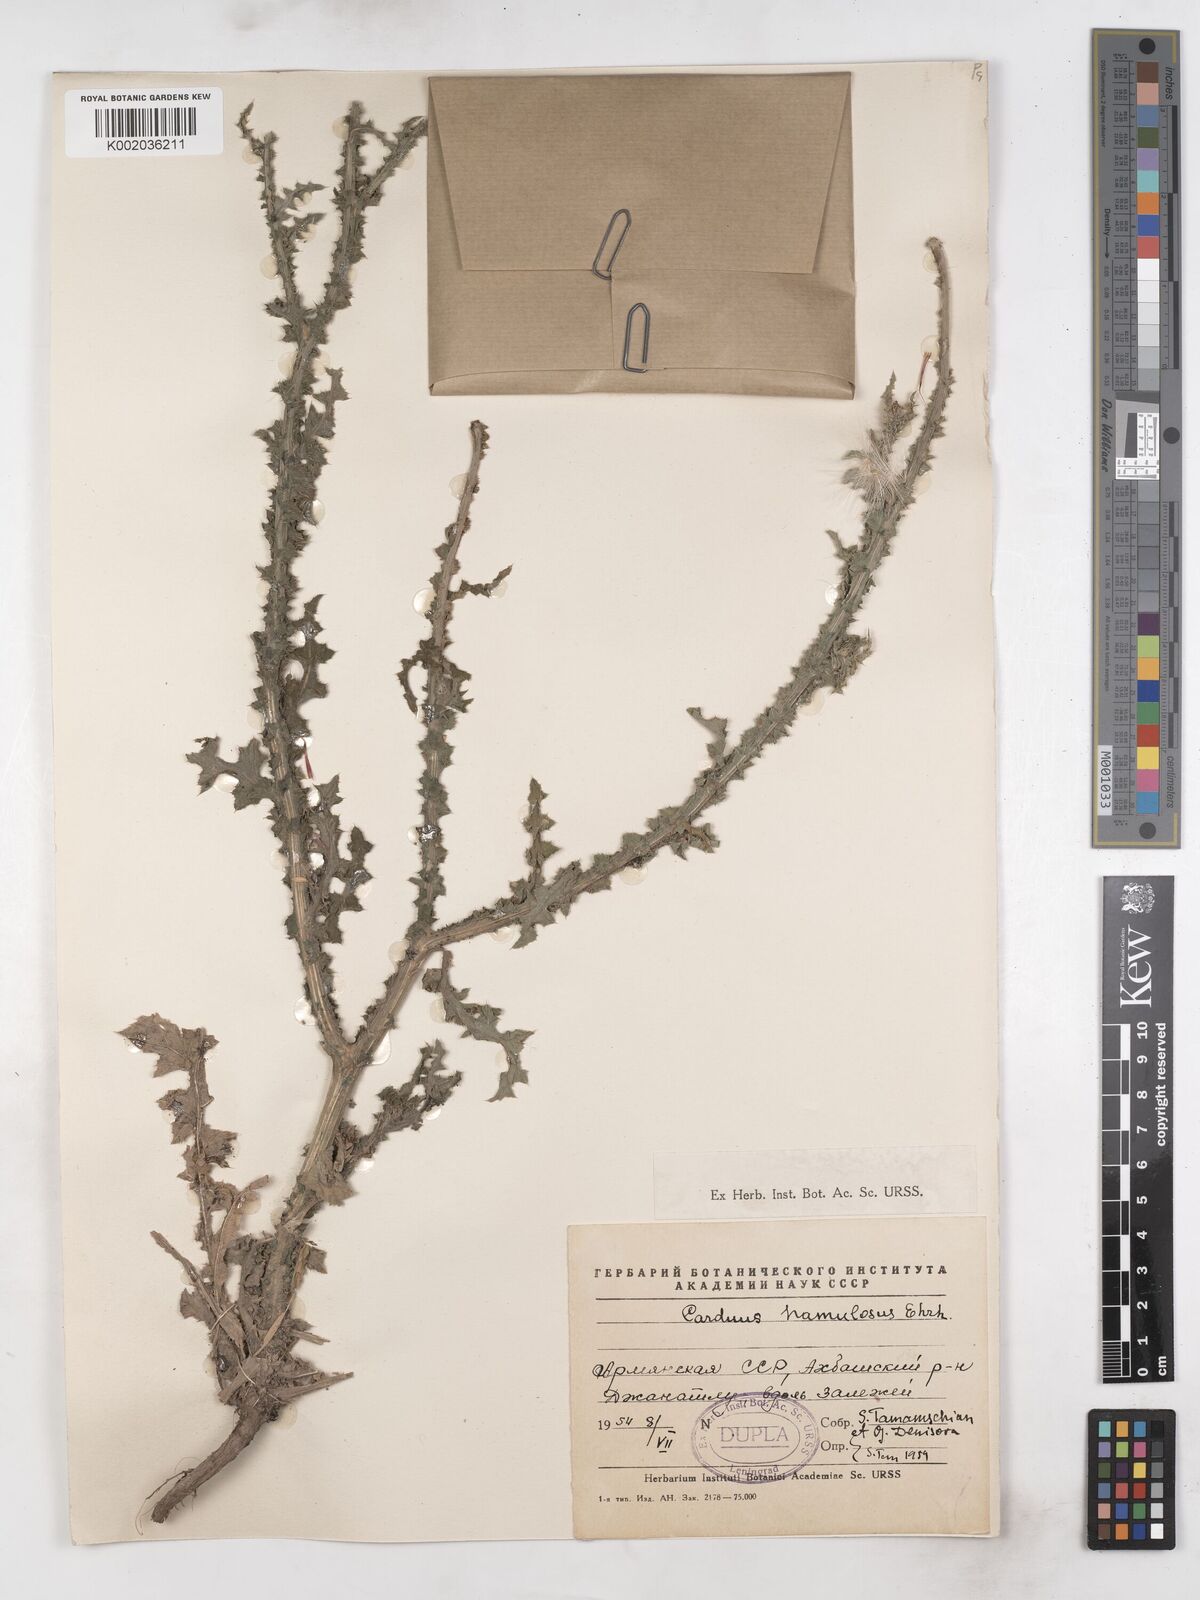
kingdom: Plantae
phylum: Tracheophyta
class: Magnoliopsida
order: Asterales
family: Asteraceae
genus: Carduus
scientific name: Carduus nutans
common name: Musk thistle
